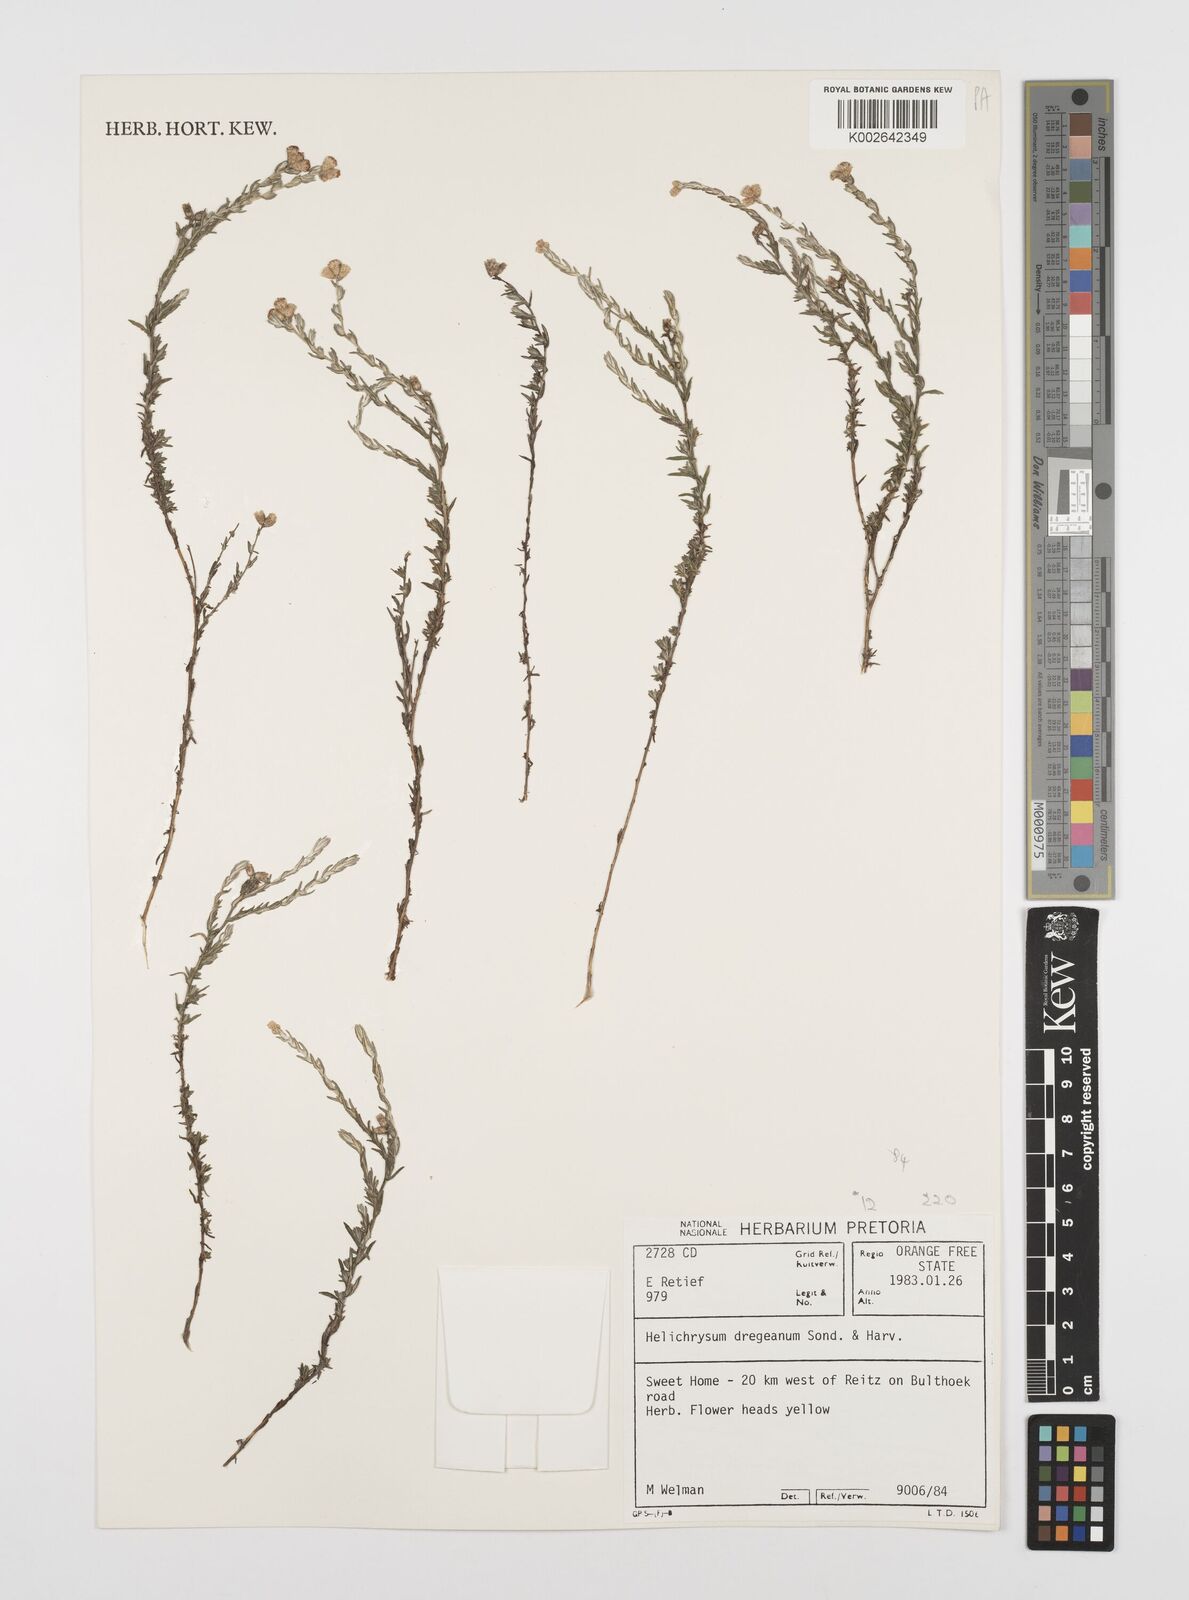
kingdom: Plantae
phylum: Tracheophyta
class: Magnoliopsida
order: Asterales
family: Asteraceae
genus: Helichrysum
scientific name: Helichrysum dregeanum
